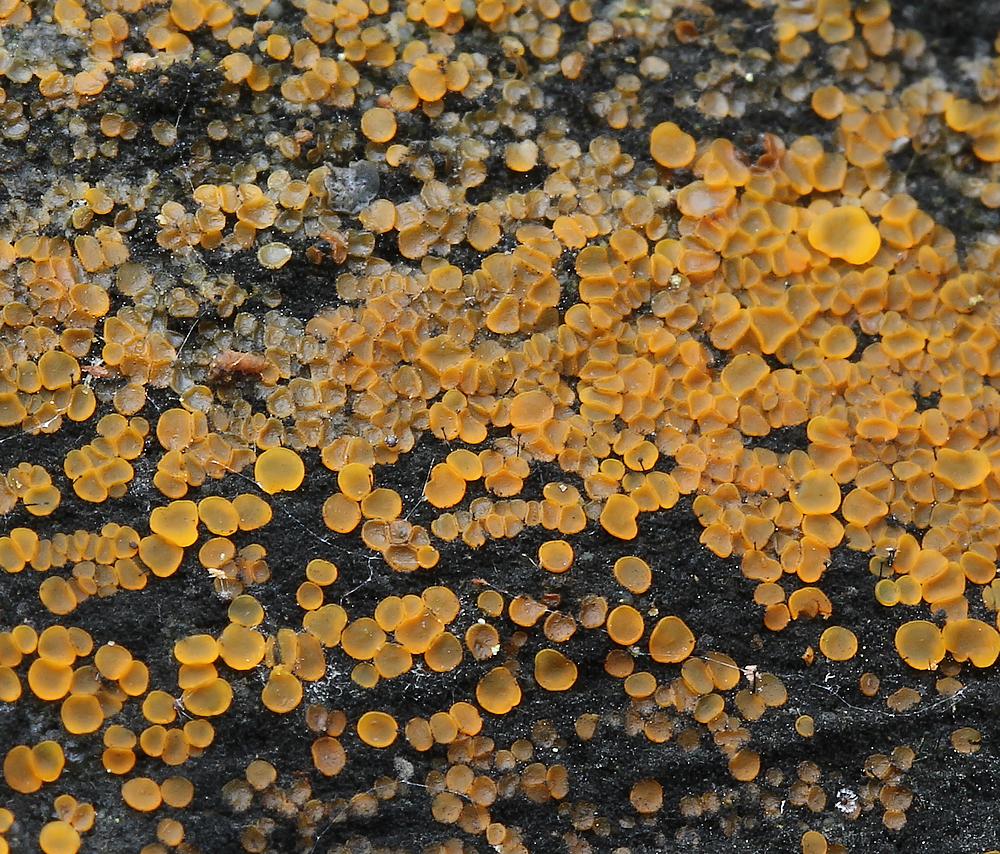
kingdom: Fungi
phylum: Ascomycota
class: Orbiliomycetes
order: Orbiliales
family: Orbiliaceae
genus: Orbilia
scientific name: Orbilia xanthostigma
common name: krumsporet voksskive
